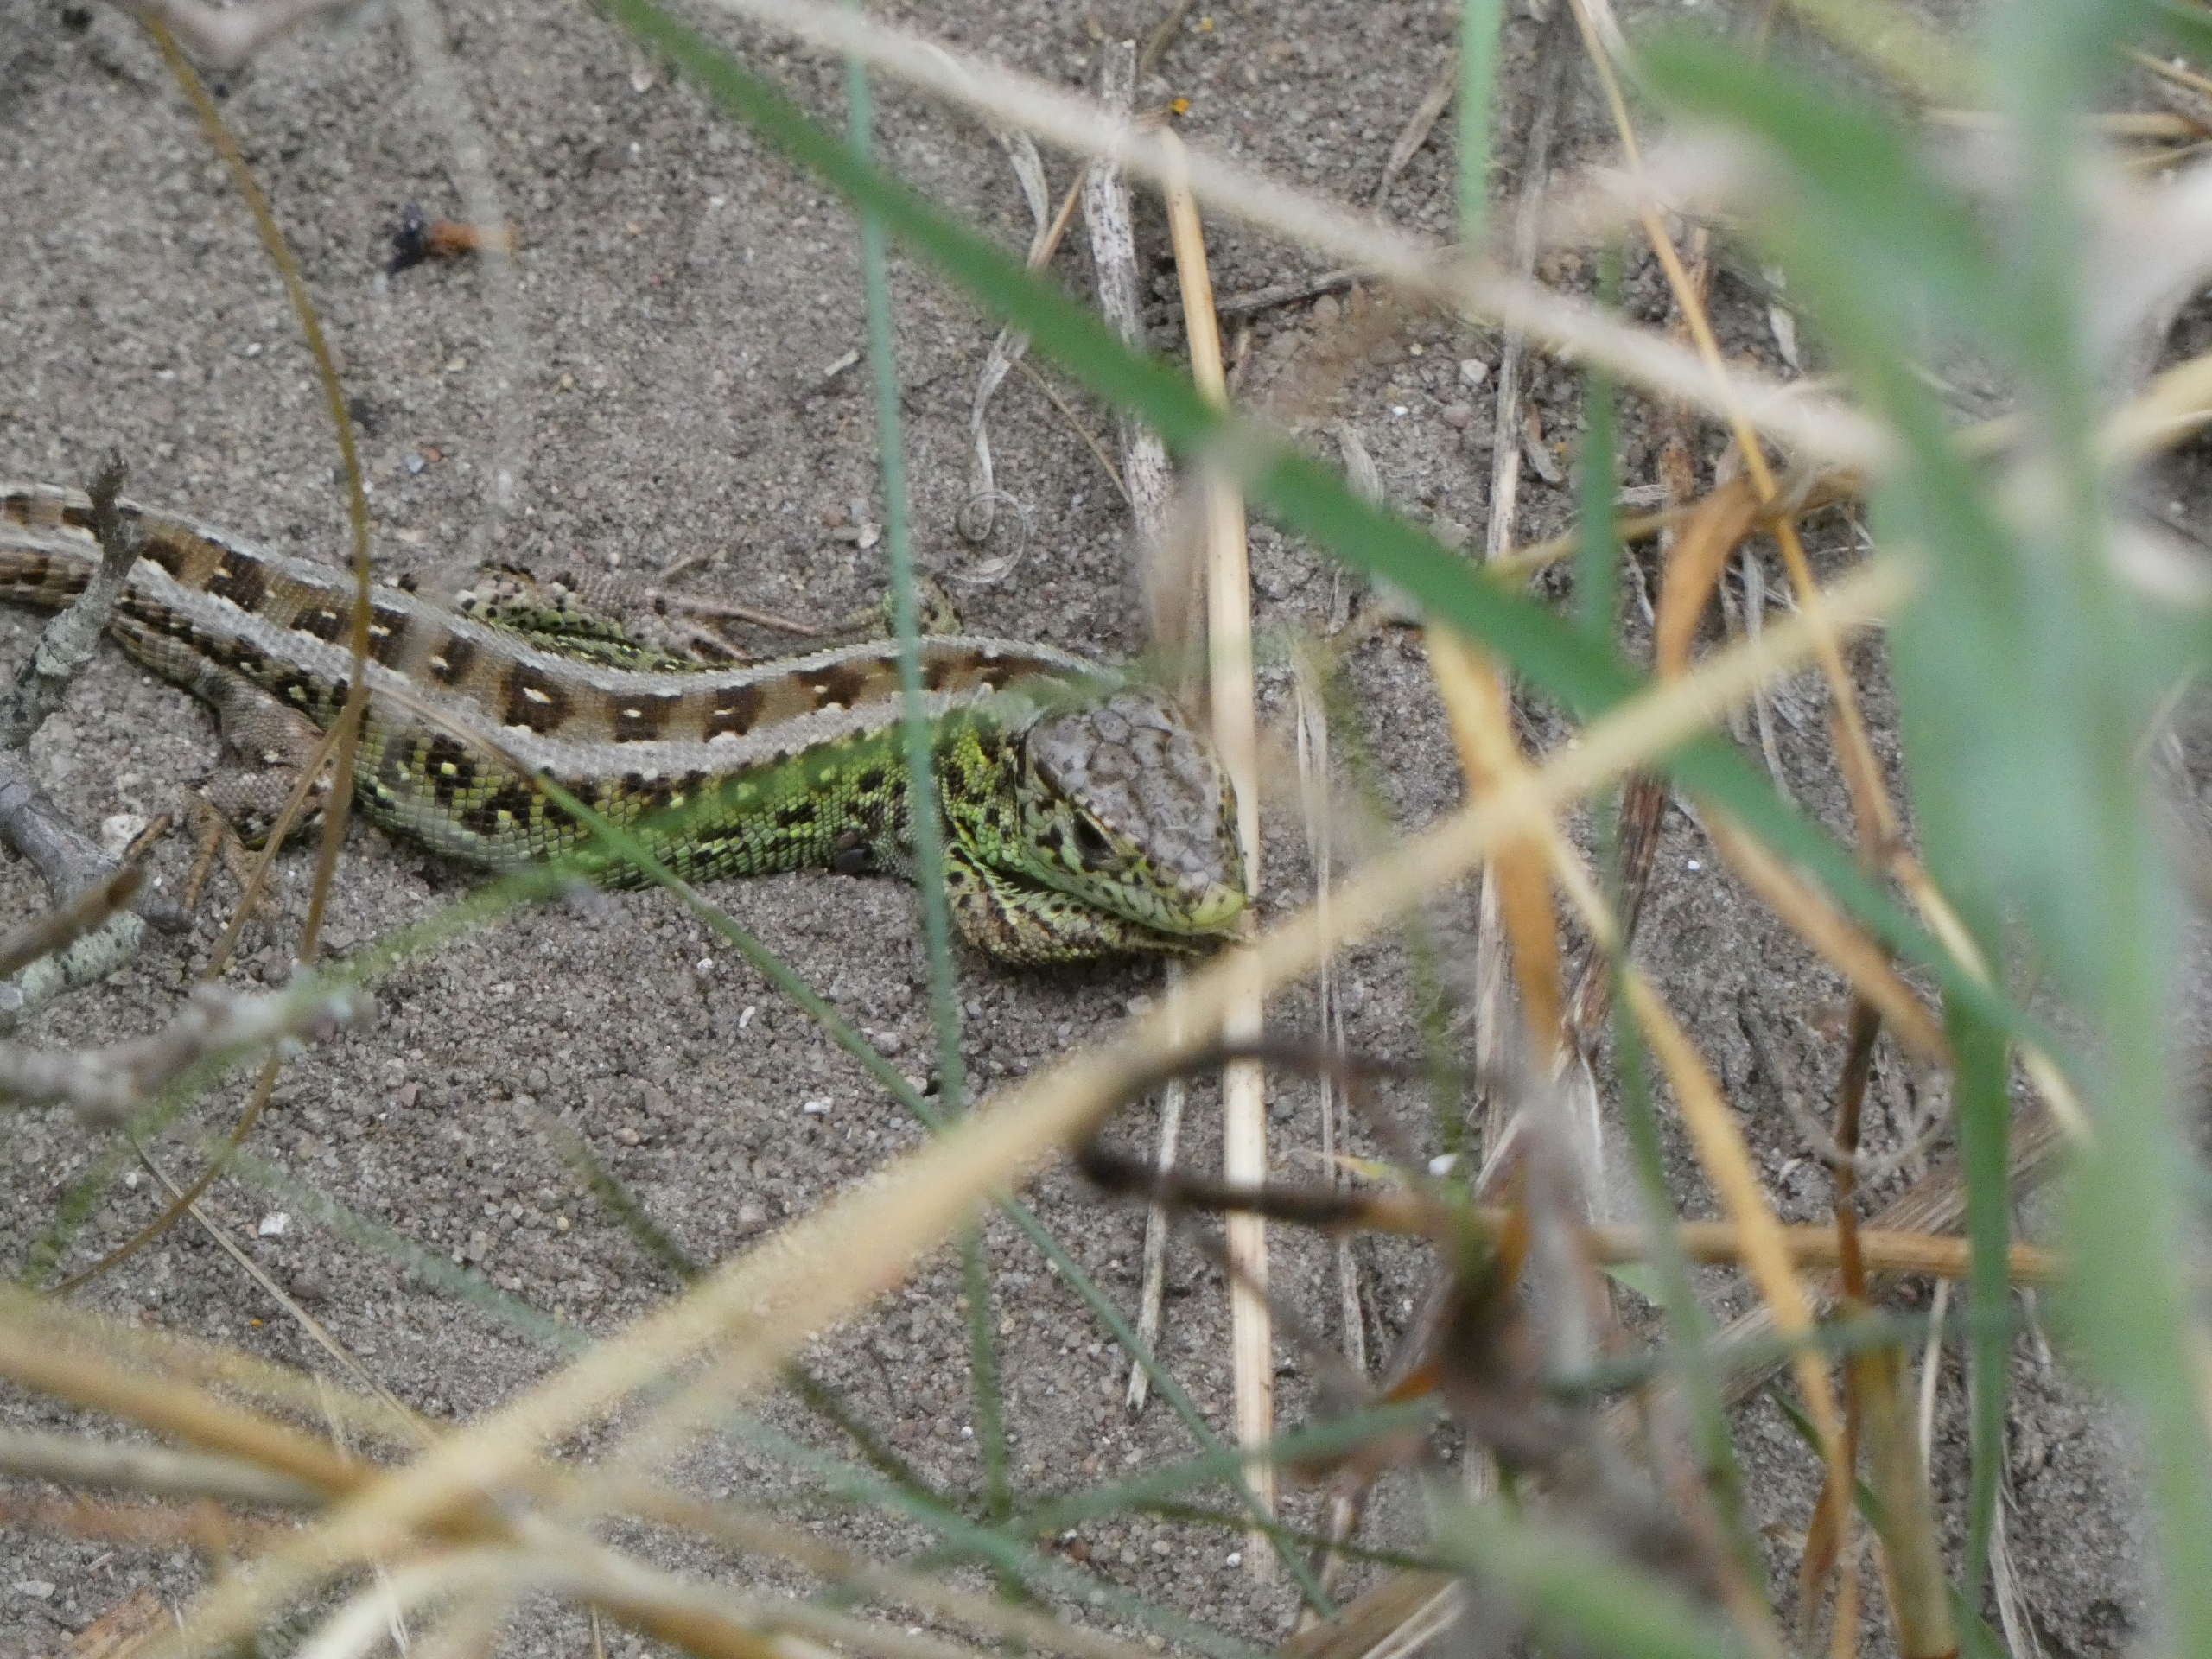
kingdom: Animalia
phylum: Chordata
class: Squamata
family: Lacertidae
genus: Lacerta
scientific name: Lacerta agilis
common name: Markfirben
